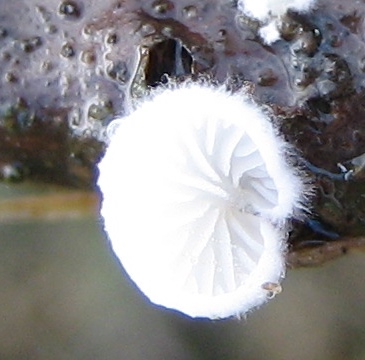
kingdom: Fungi
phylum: Basidiomycota
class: Agaricomycetes
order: Agaricales
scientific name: Agaricales
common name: champignonordenen
